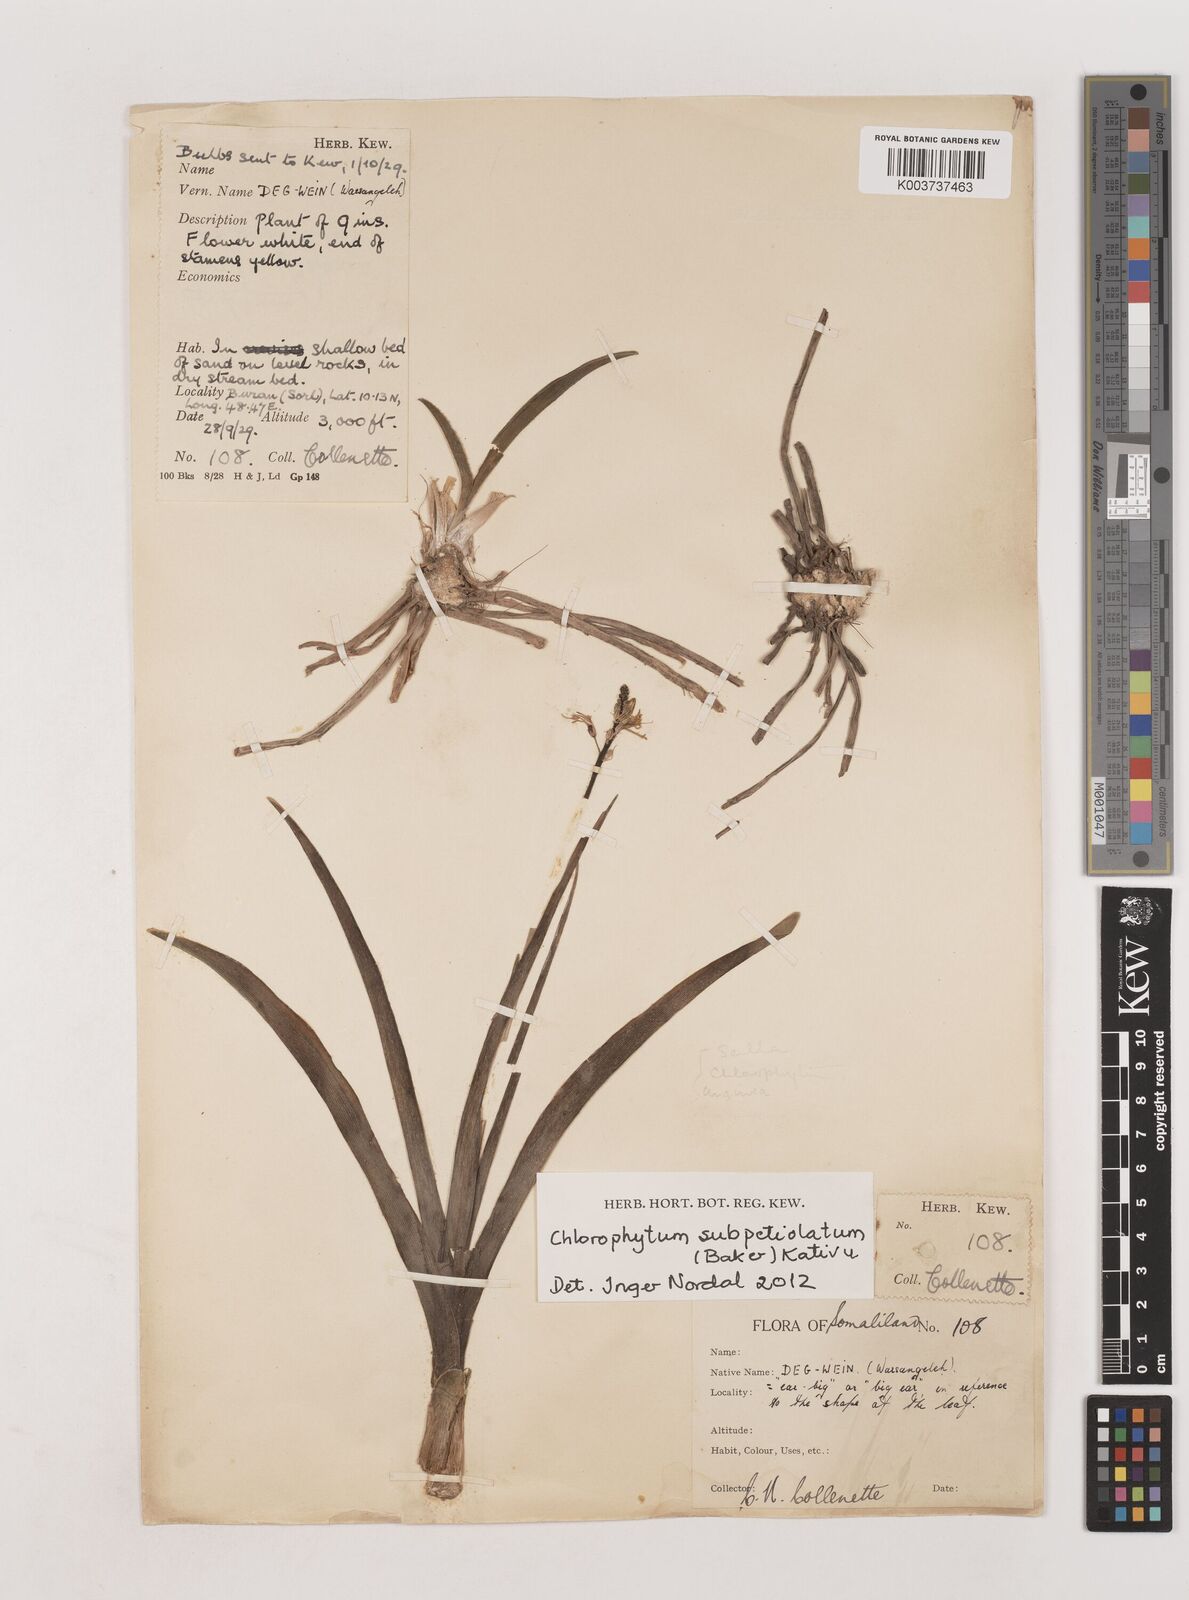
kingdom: Plantae
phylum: Tracheophyta
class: Liliopsida
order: Asparagales
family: Asparagaceae
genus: Chlorophytum
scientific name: Chlorophytum subpetiolatum
